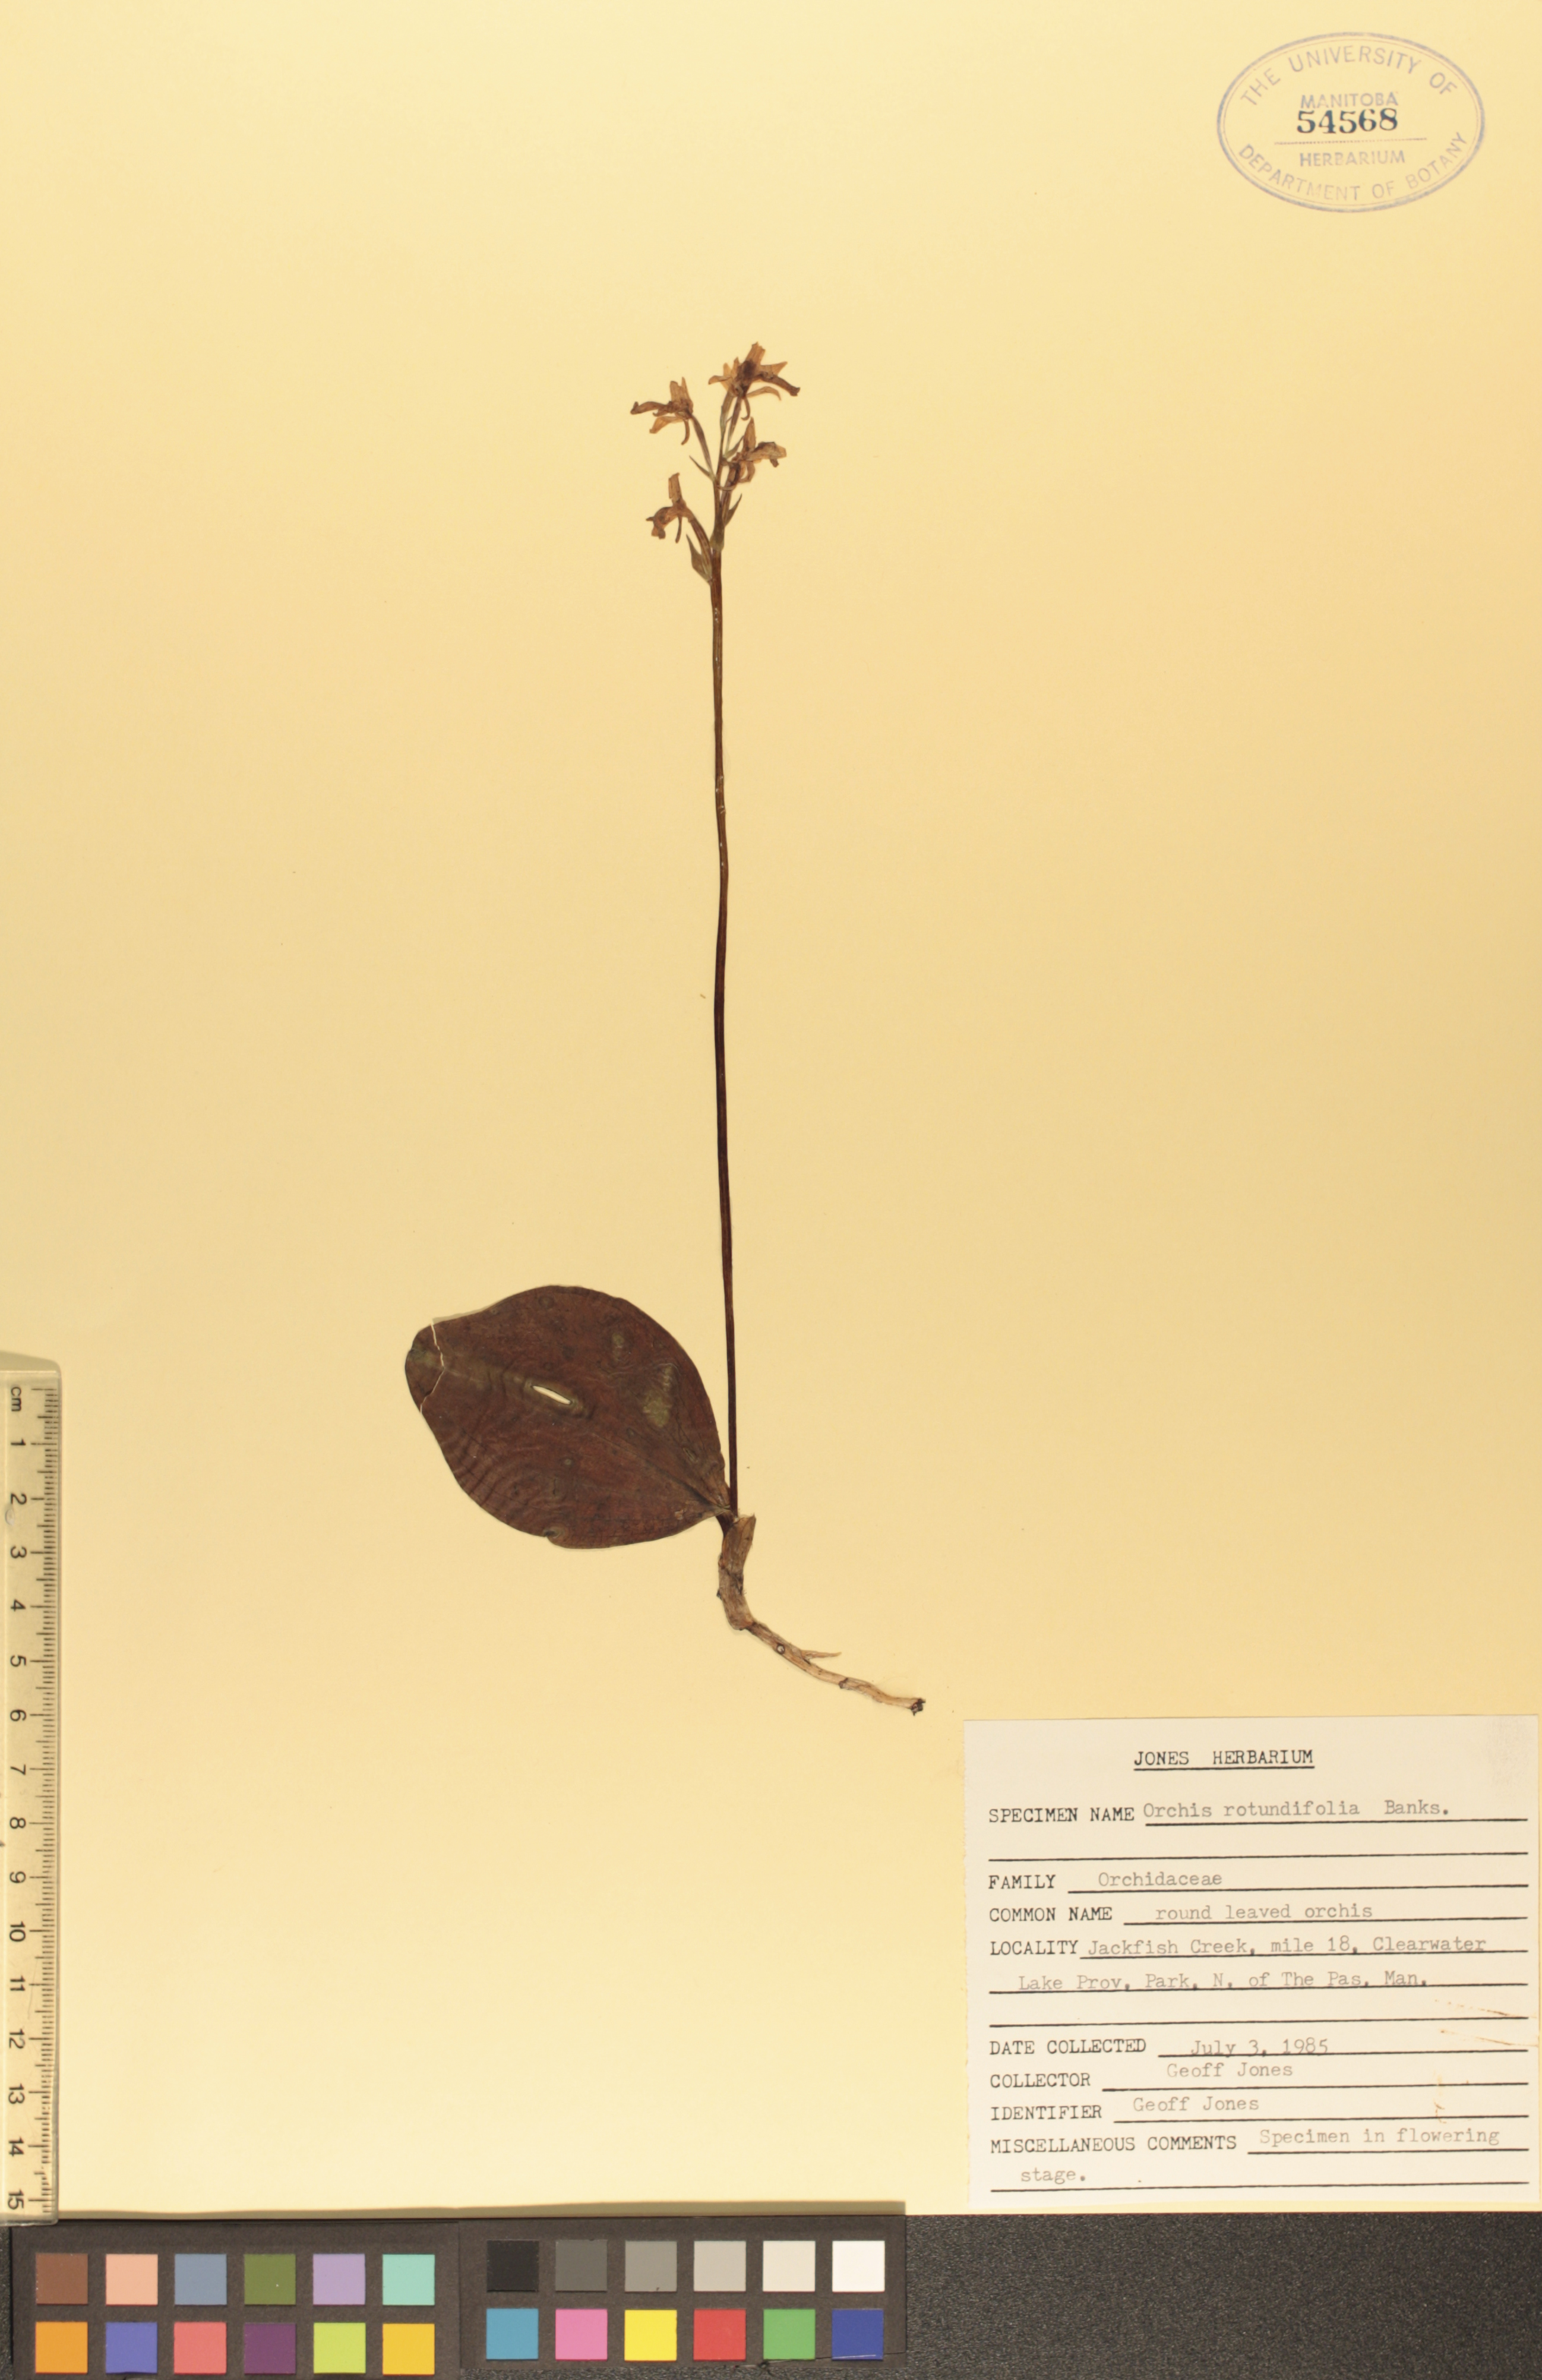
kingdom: Plantae
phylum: Tracheophyta
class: Liliopsida
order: Asparagales
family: Orchidaceae
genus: Galearis
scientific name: Galearis rotundifolia
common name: One-leaved orchis
